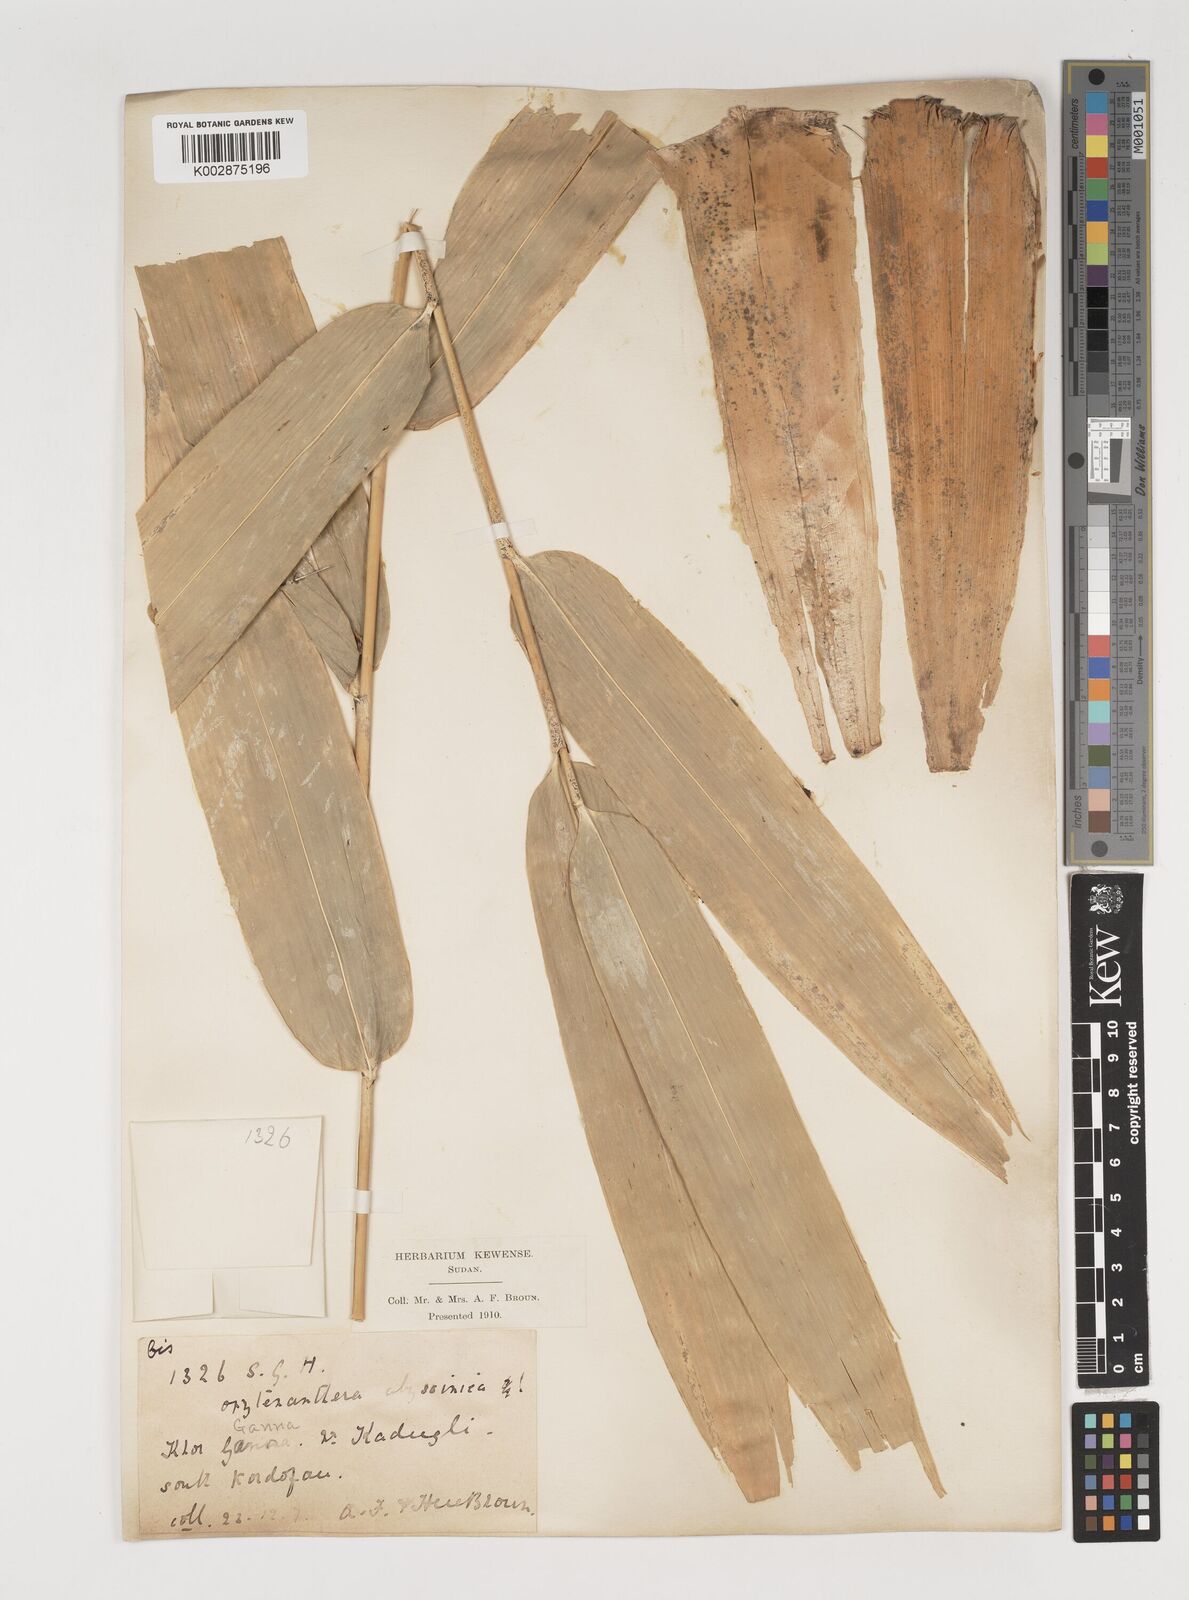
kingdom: Plantae
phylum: Tracheophyta
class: Liliopsida
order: Poales
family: Poaceae
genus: Oxytenanthera
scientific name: Oxytenanthera abyssinica
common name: Wine bamboo
